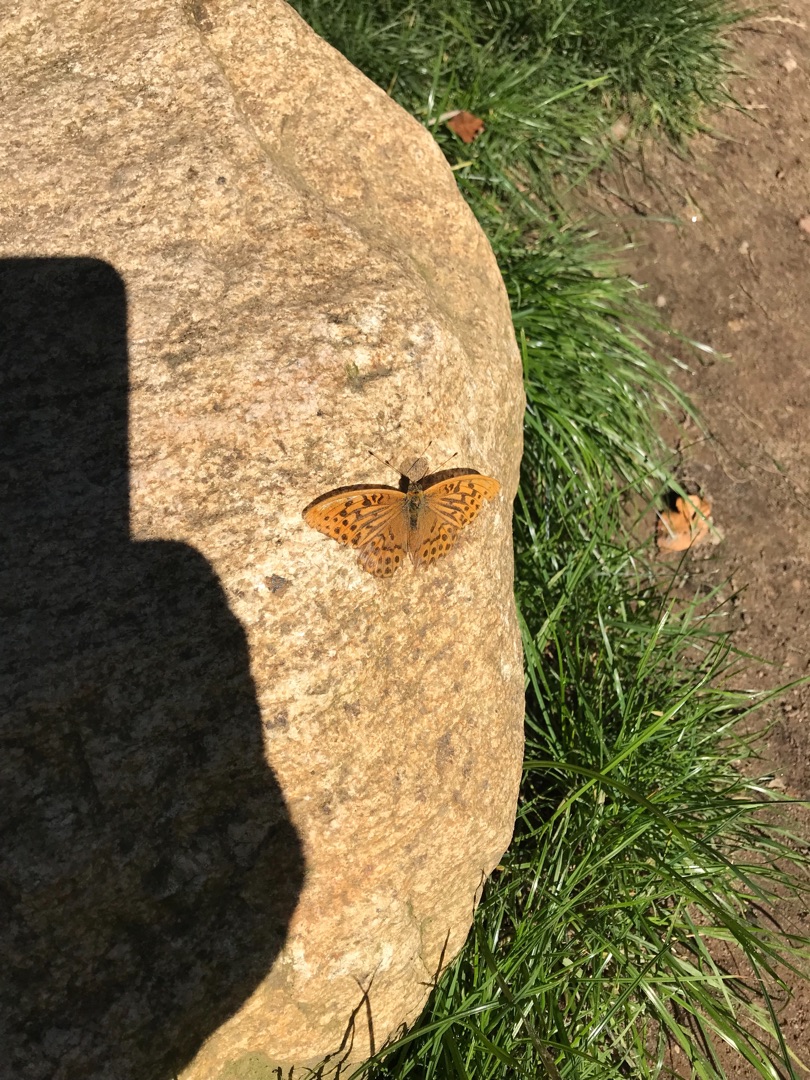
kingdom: Animalia
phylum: Arthropoda
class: Insecta
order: Lepidoptera
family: Nymphalidae
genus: Argynnis
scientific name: Argynnis paphia
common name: Kejserkåbe
